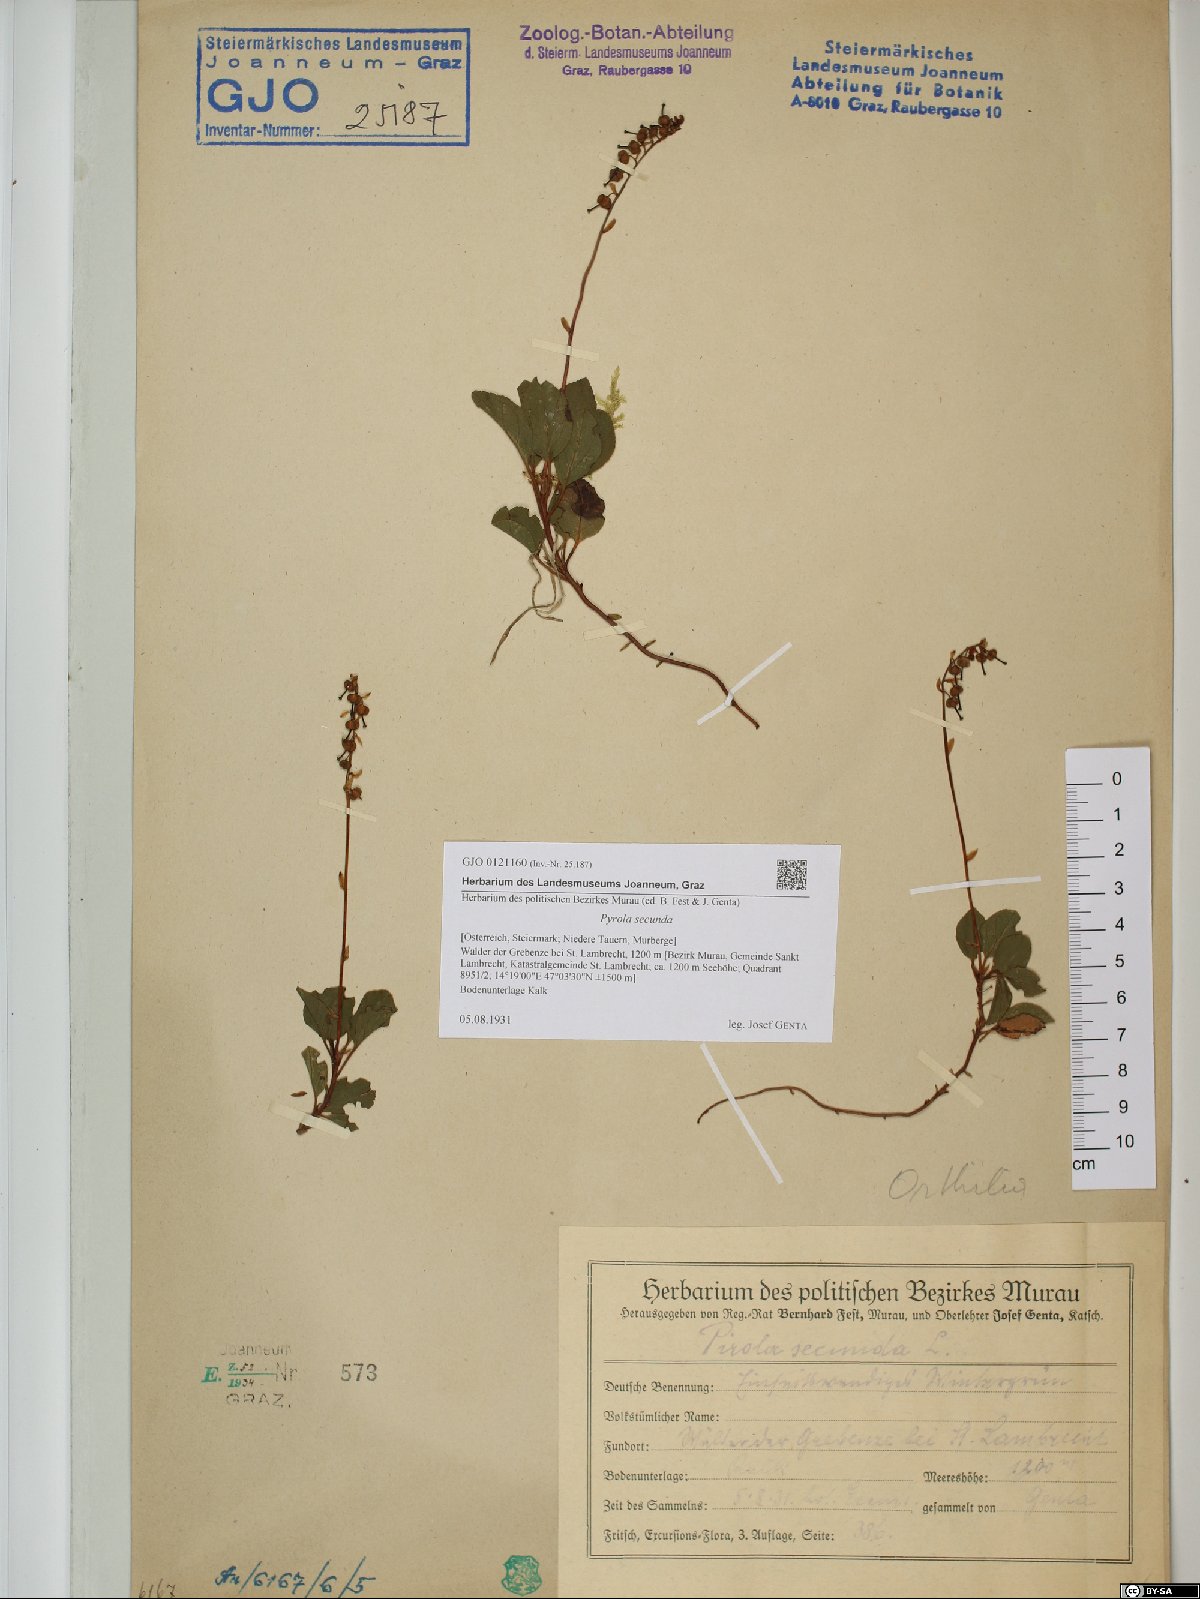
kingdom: Plantae
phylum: Tracheophyta
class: Magnoliopsida
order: Ericales
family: Ericaceae
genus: Orthilia
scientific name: Orthilia secunda
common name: One-sided orthilia
